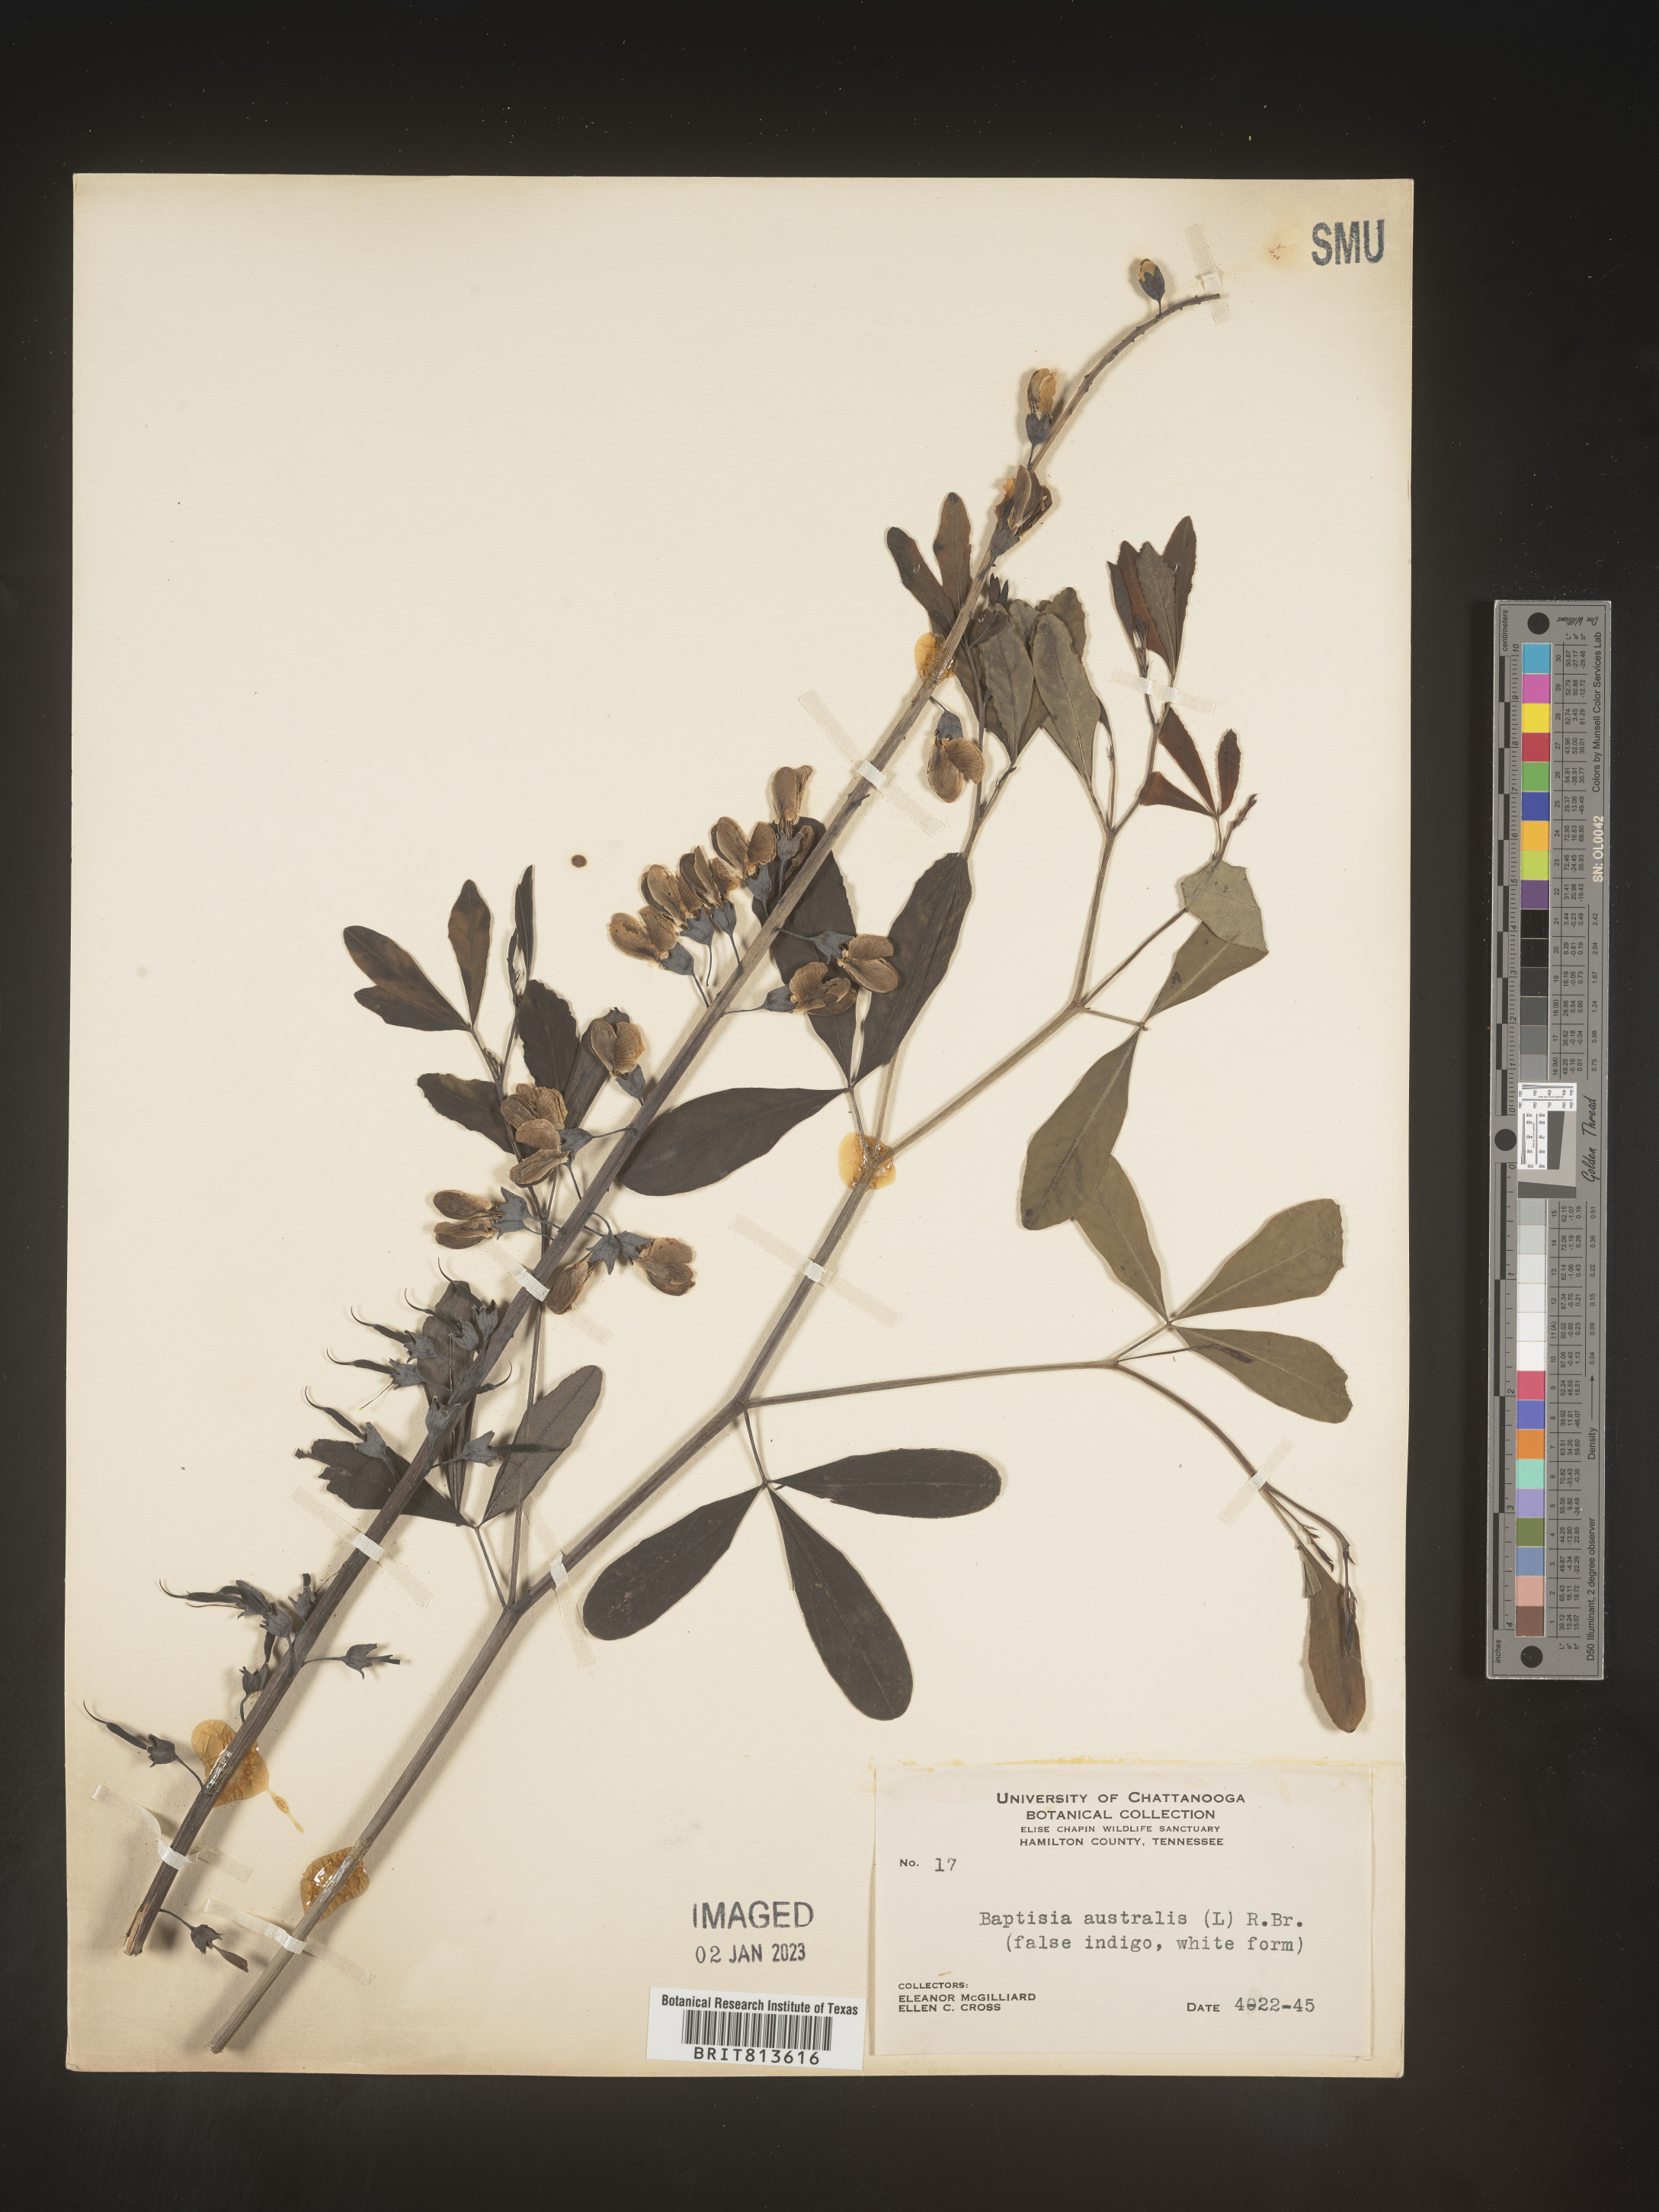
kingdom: Plantae
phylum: Tracheophyta
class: Magnoliopsida
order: Fabales
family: Fabaceae
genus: Baptisia
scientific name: Baptisia australis
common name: Blue false indigo
